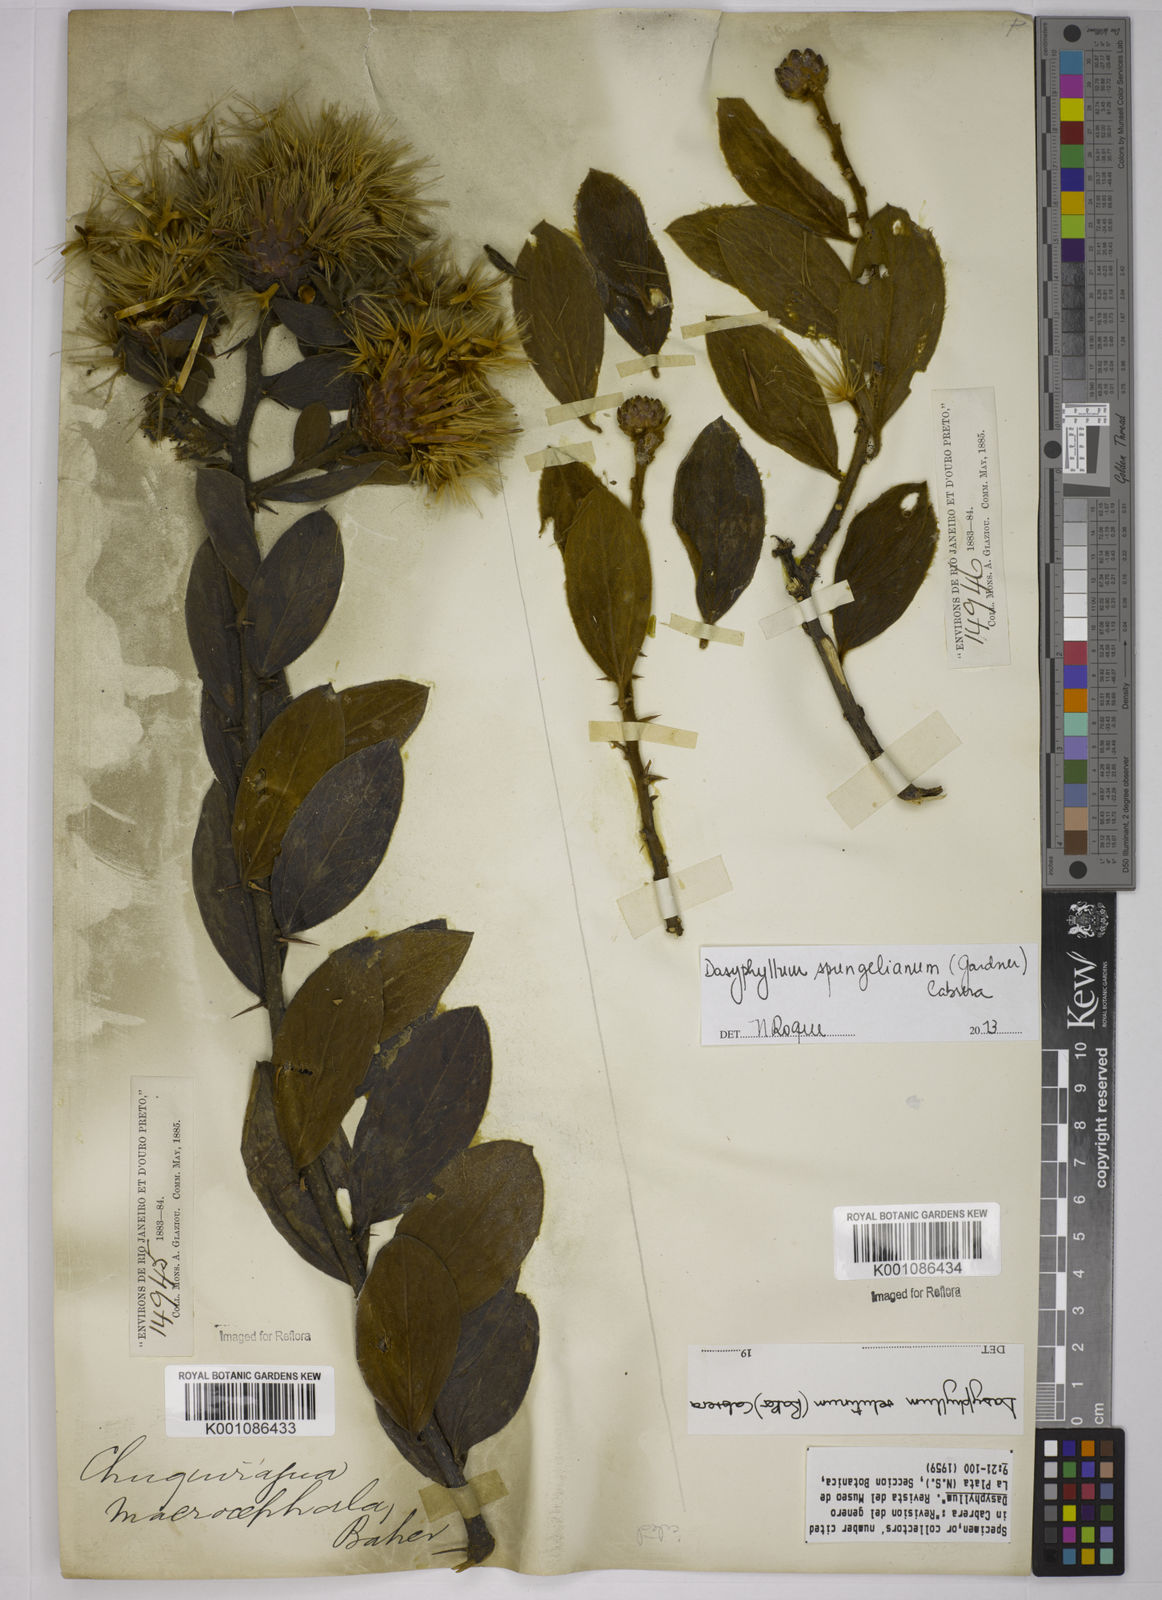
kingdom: Plantae
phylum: Tracheophyta
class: Magnoliopsida
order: Asterales
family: Asteraceae
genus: Dasyphyllum
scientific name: Dasyphyllum velutinum
